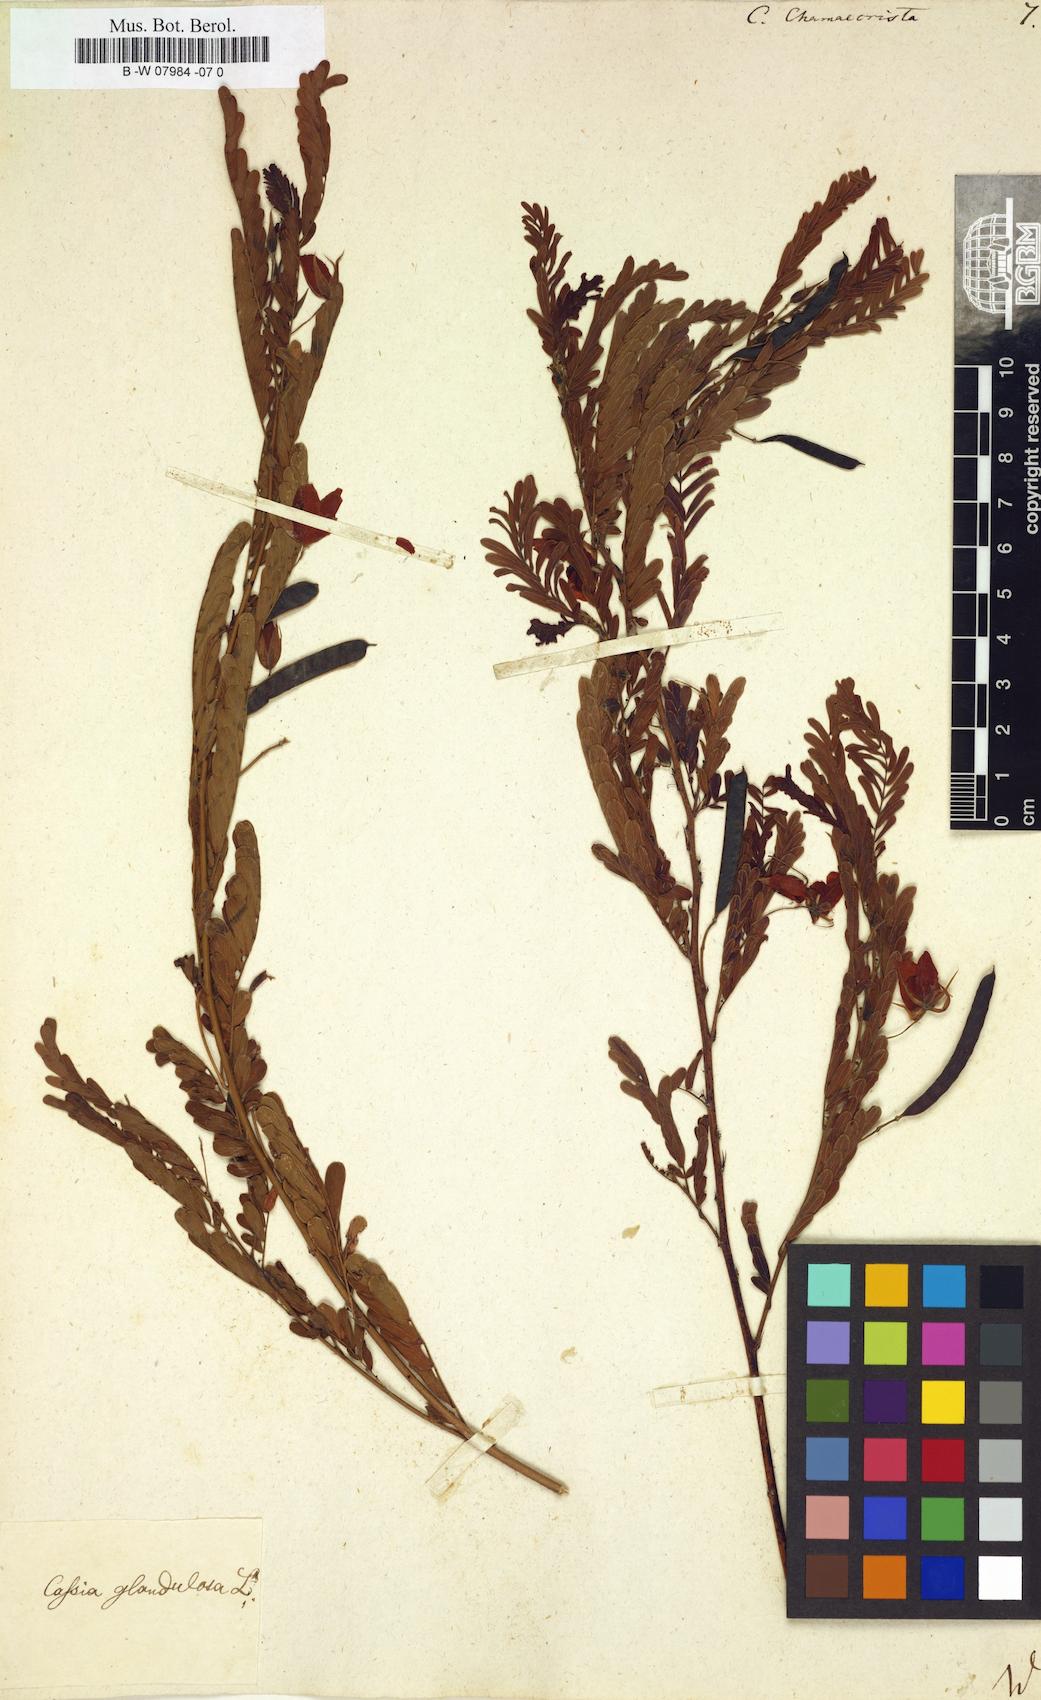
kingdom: Plantae
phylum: Tracheophyta
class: Magnoliopsida
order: Fabales
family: Fabaceae
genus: Chamaecrista
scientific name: Chamaecrista
